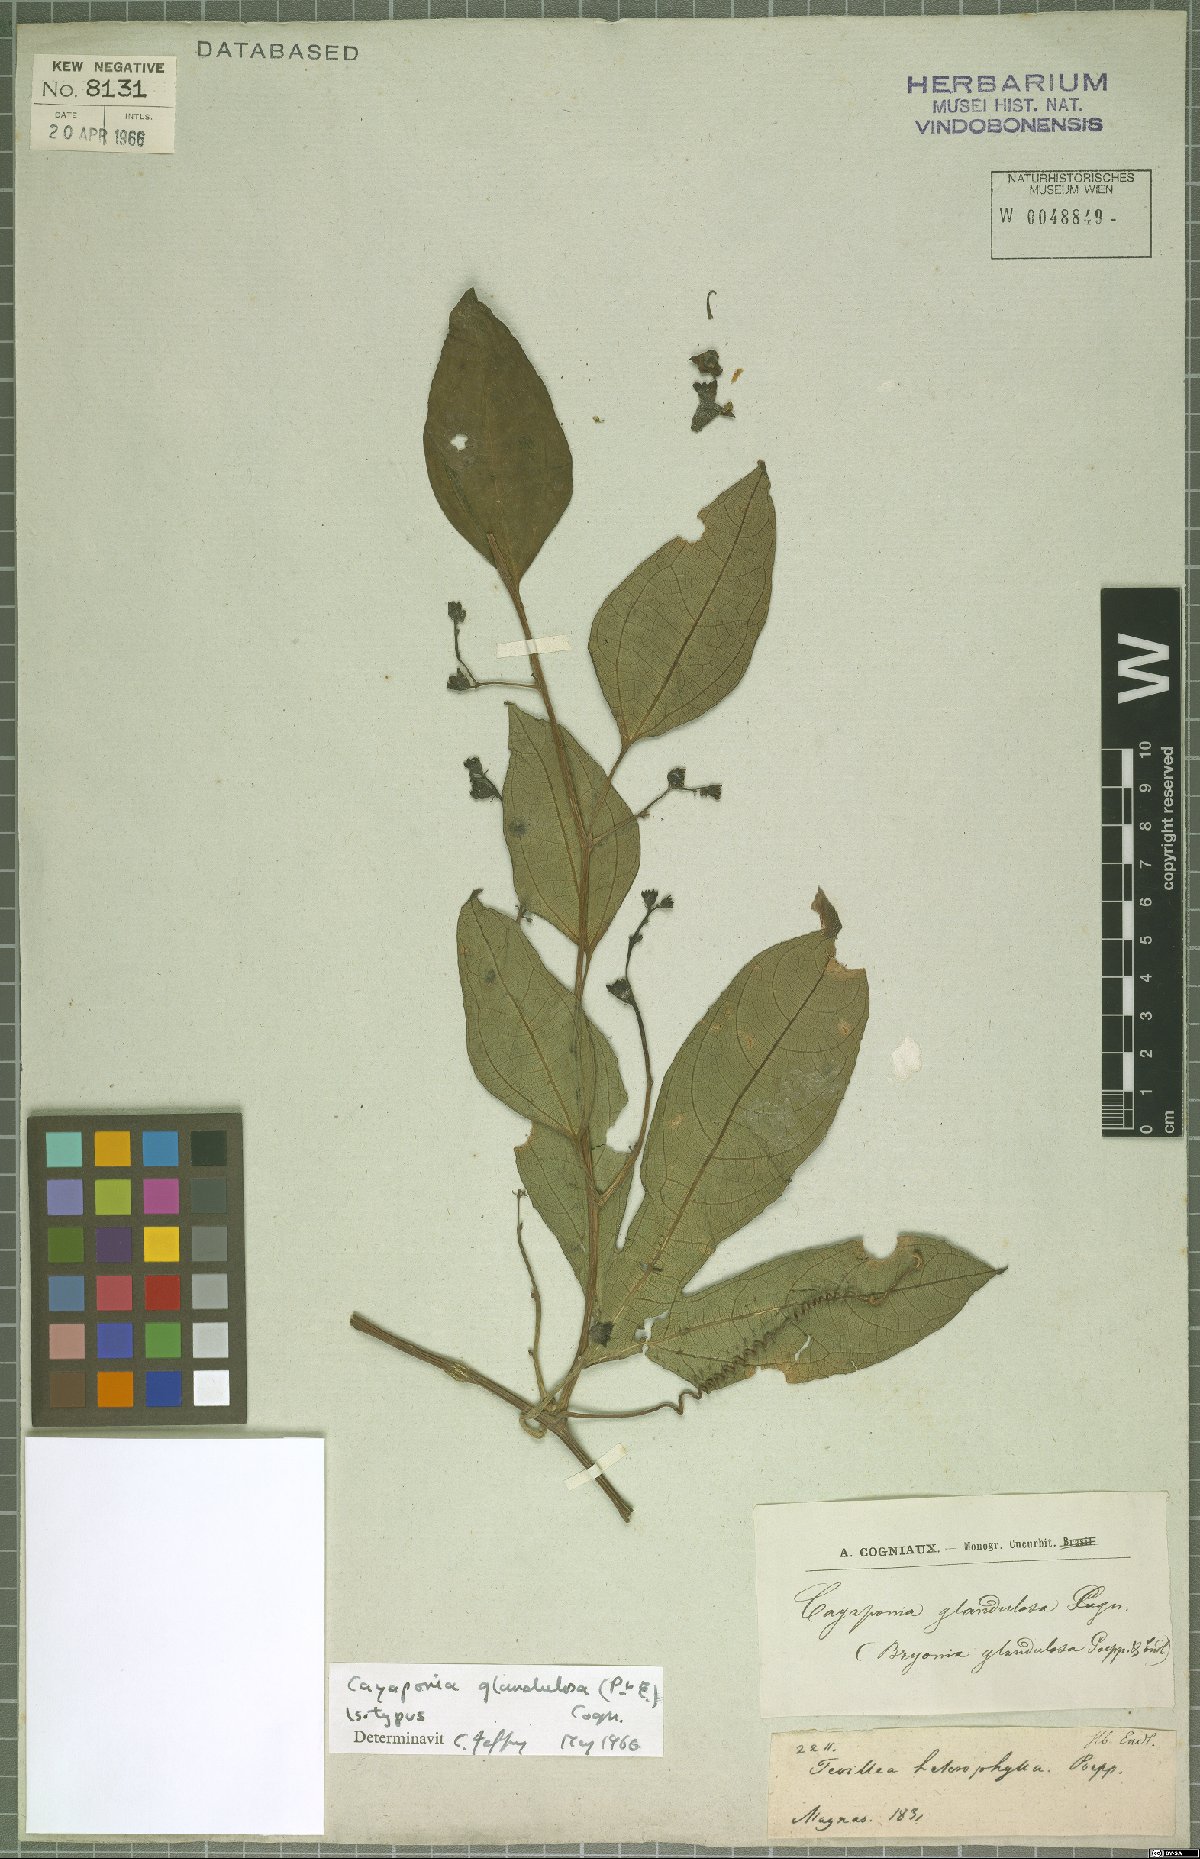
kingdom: Plantae
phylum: Tracheophyta
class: Magnoliopsida
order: Cucurbitales
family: Cucurbitaceae
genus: Cayaponia
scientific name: Cayaponia glandulosa
